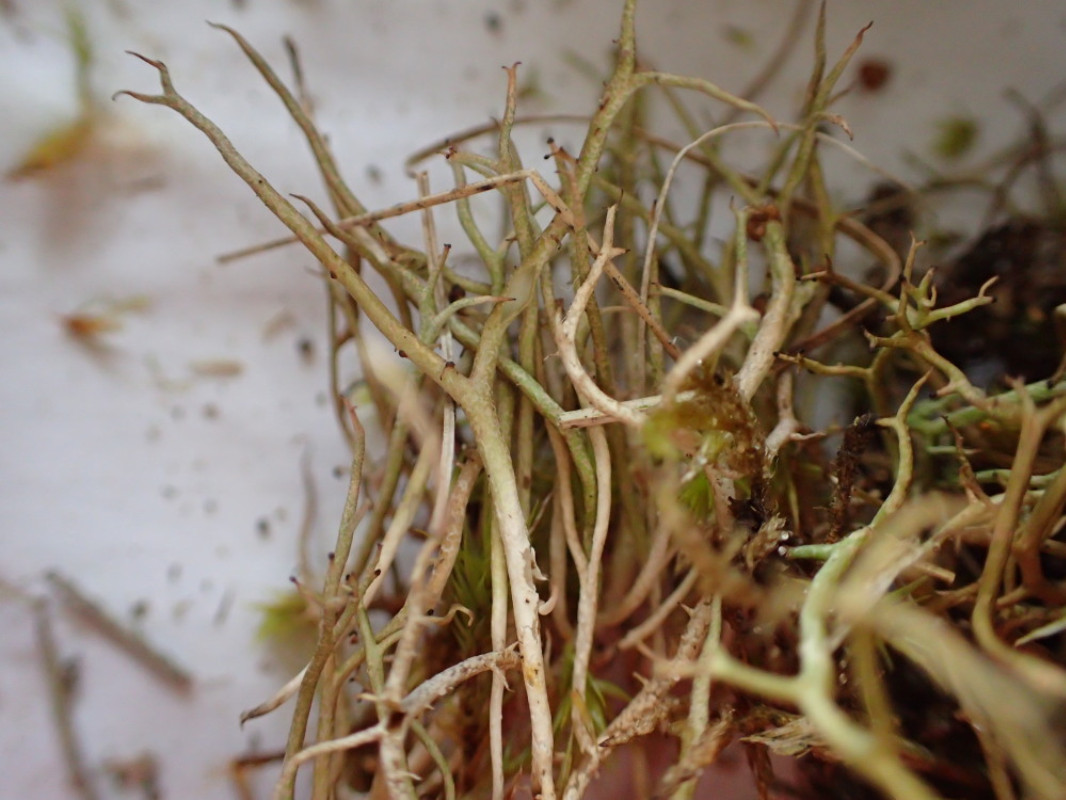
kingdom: Fungi
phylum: Ascomycota
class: Lecanoromycetes
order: Lecanorales
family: Cladoniaceae
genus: Cladonia
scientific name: Cladonia furcata
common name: kløftet bægerlav
